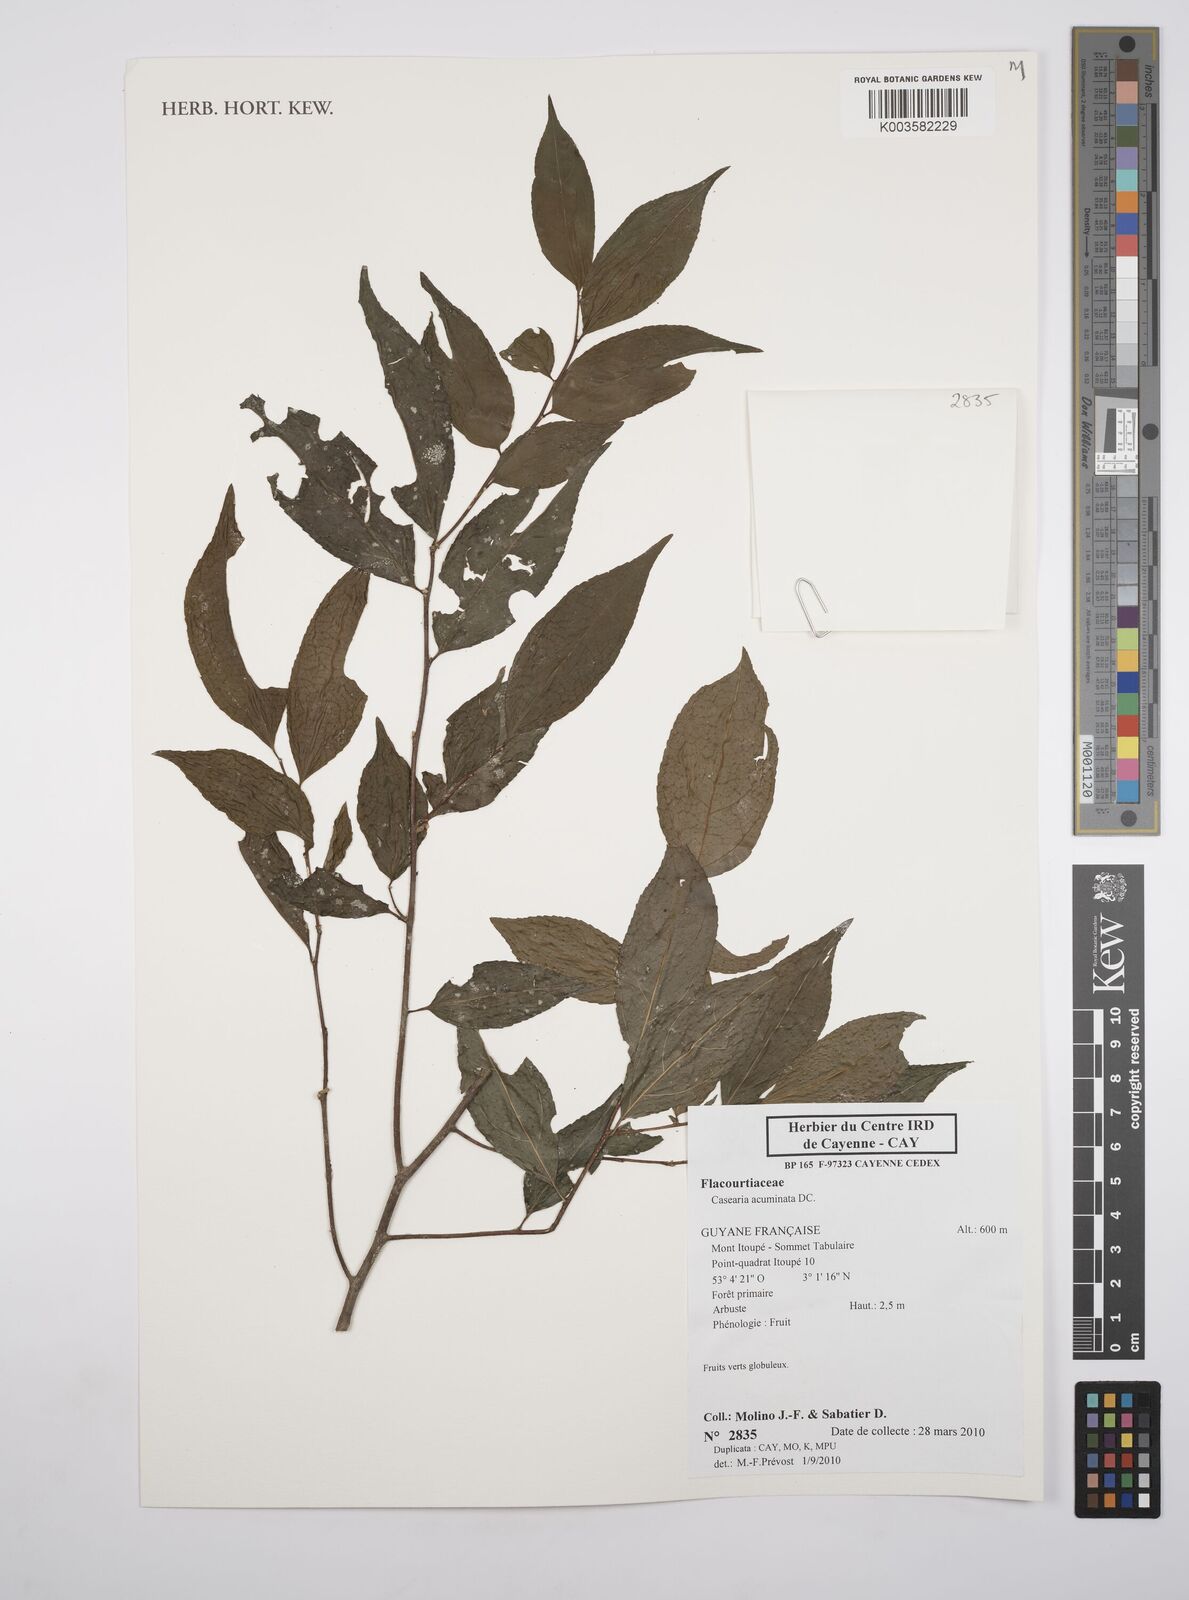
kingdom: Plantae
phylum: Tracheophyta
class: Magnoliopsida
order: Malpighiales
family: Salicaceae
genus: Casearia
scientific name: Casearia acuminata
